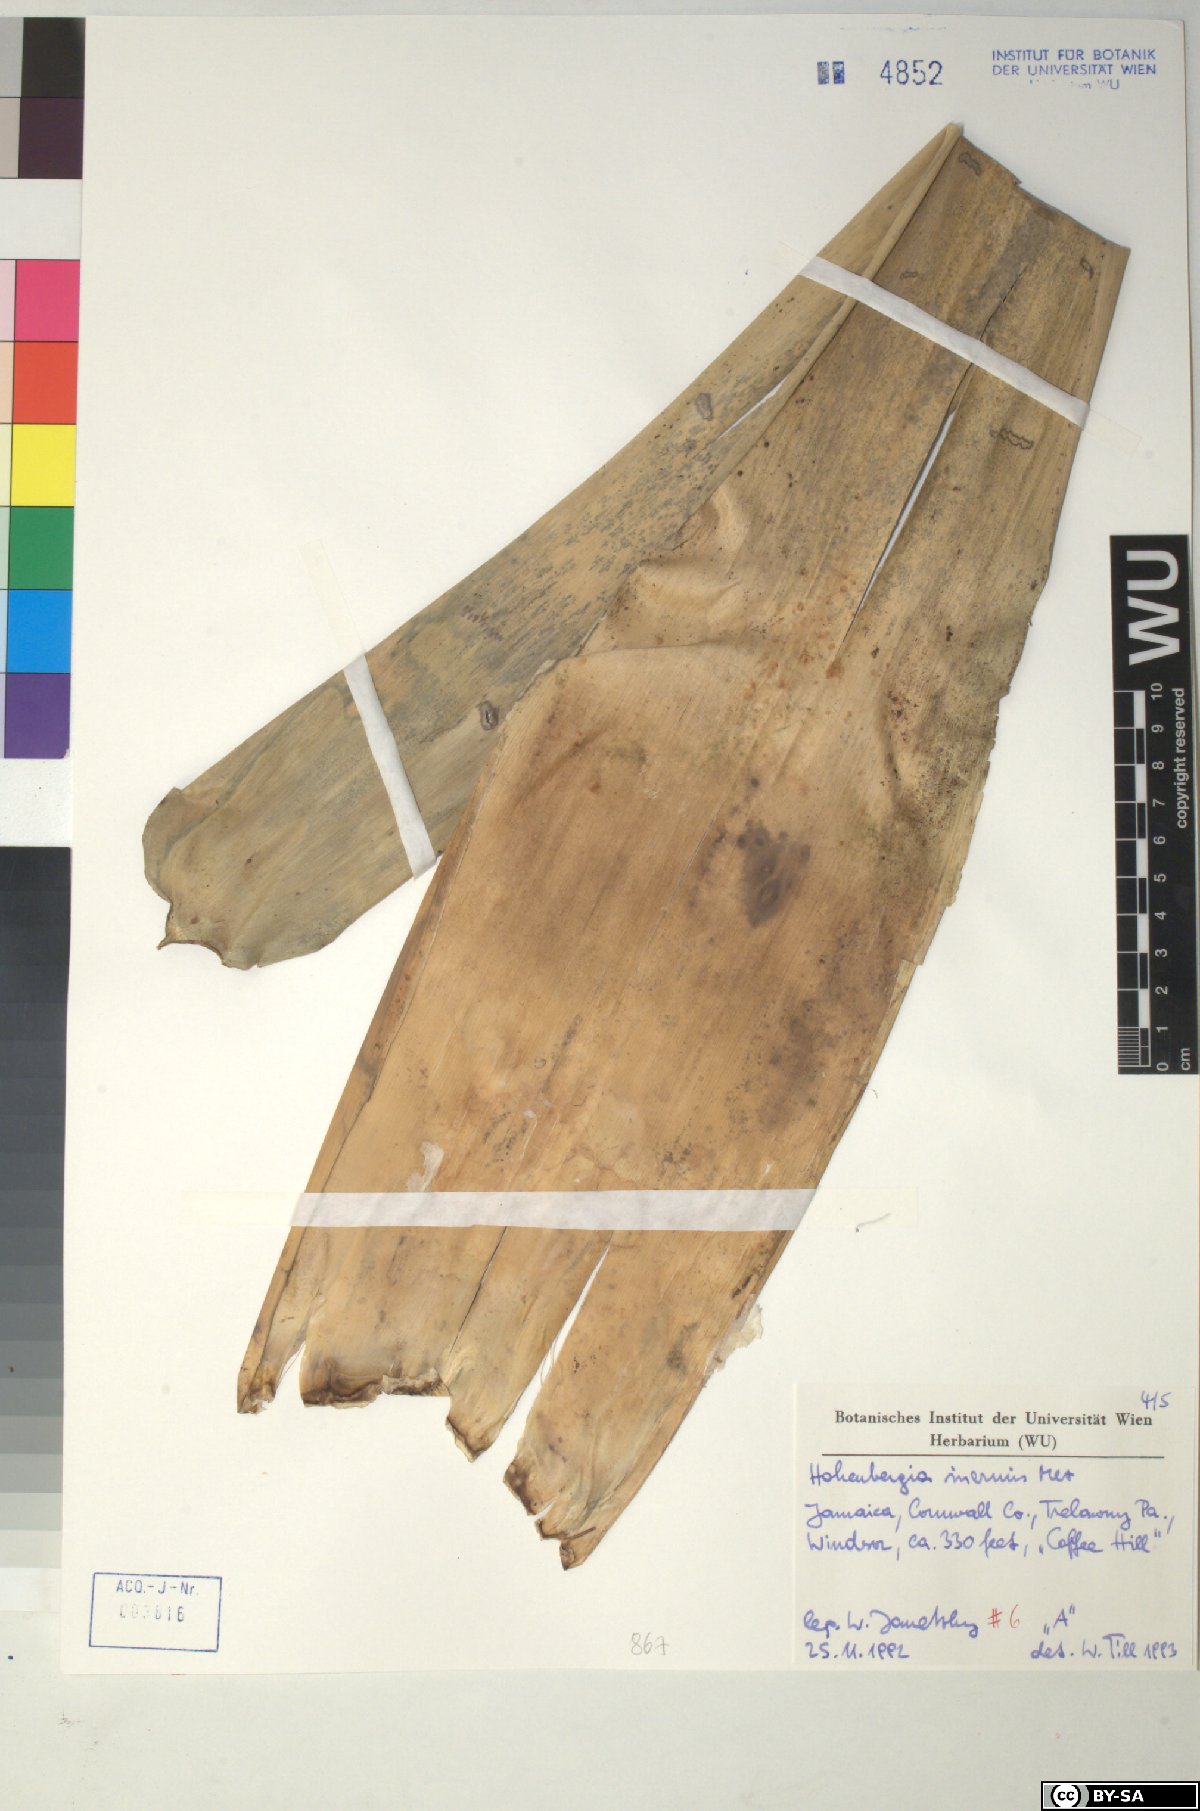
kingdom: Plantae
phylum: Tracheophyta
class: Liliopsida
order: Poales
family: Bromeliaceae
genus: Wittmackia
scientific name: Wittmackia inermis
